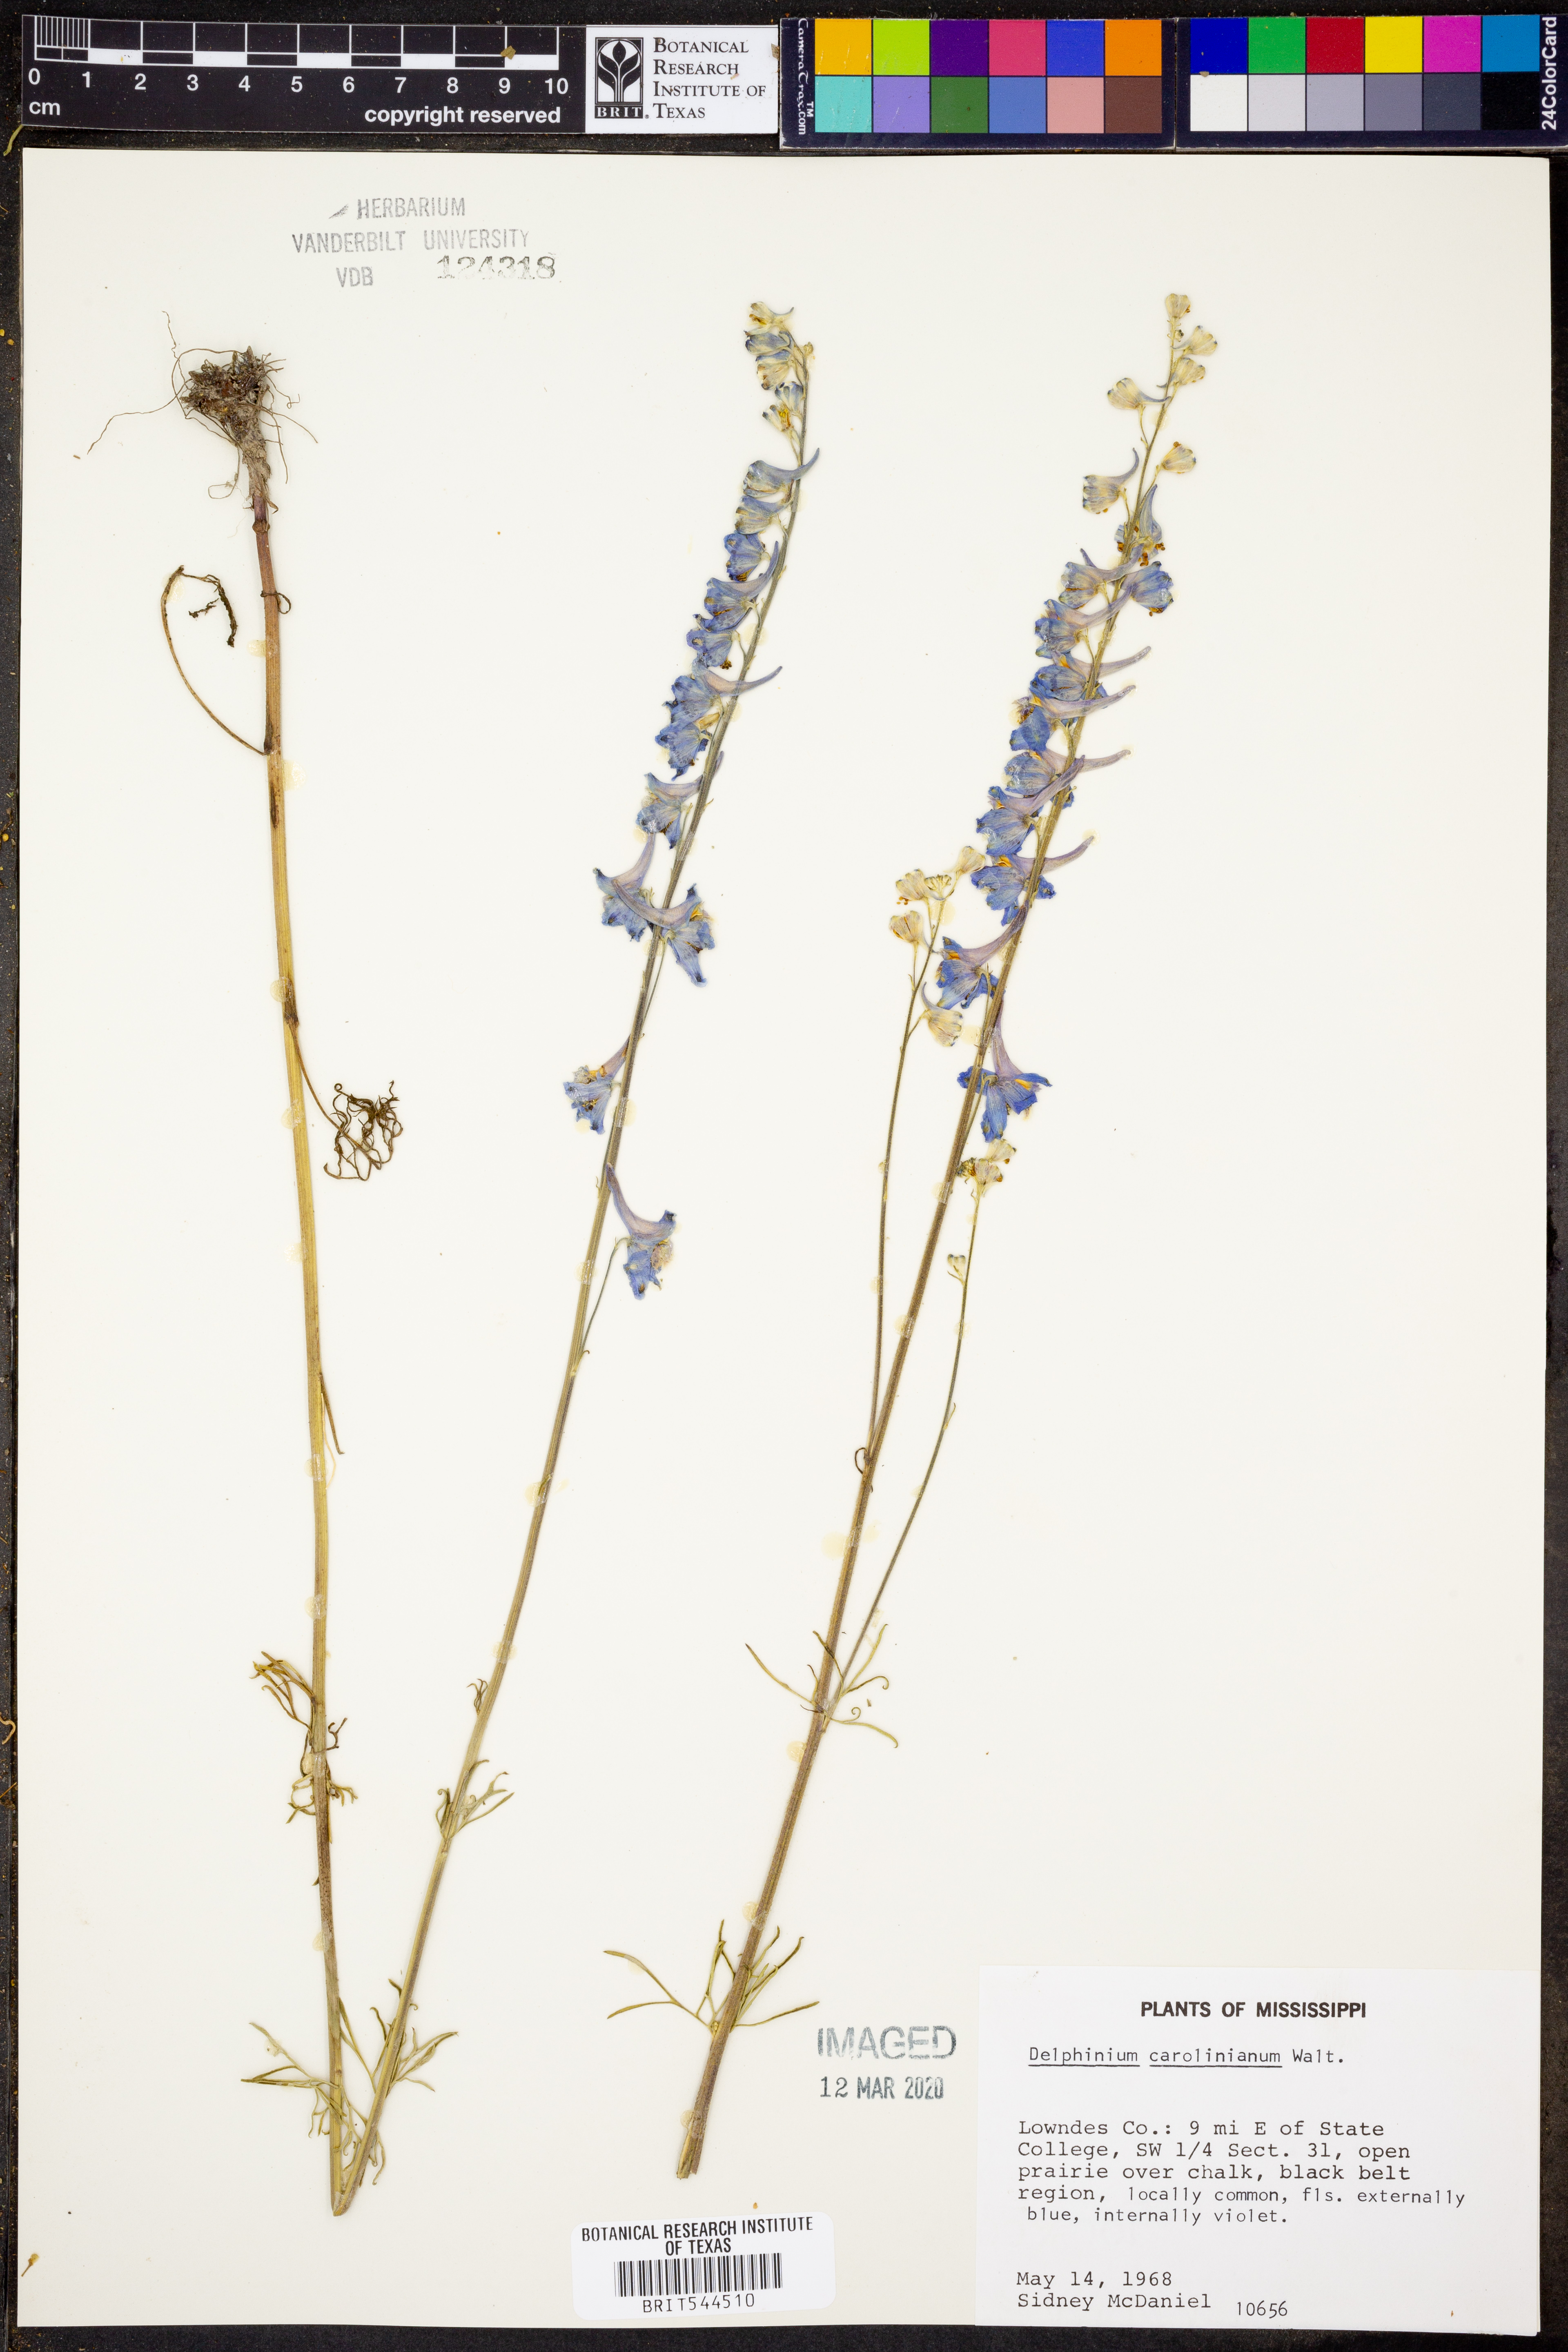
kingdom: Plantae
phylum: Tracheophyta
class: Magnoliopsida
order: Ranunculales
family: Ranunculaceae
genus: Delphinium
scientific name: Delphinium carolinianum
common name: Carolina larkspur
